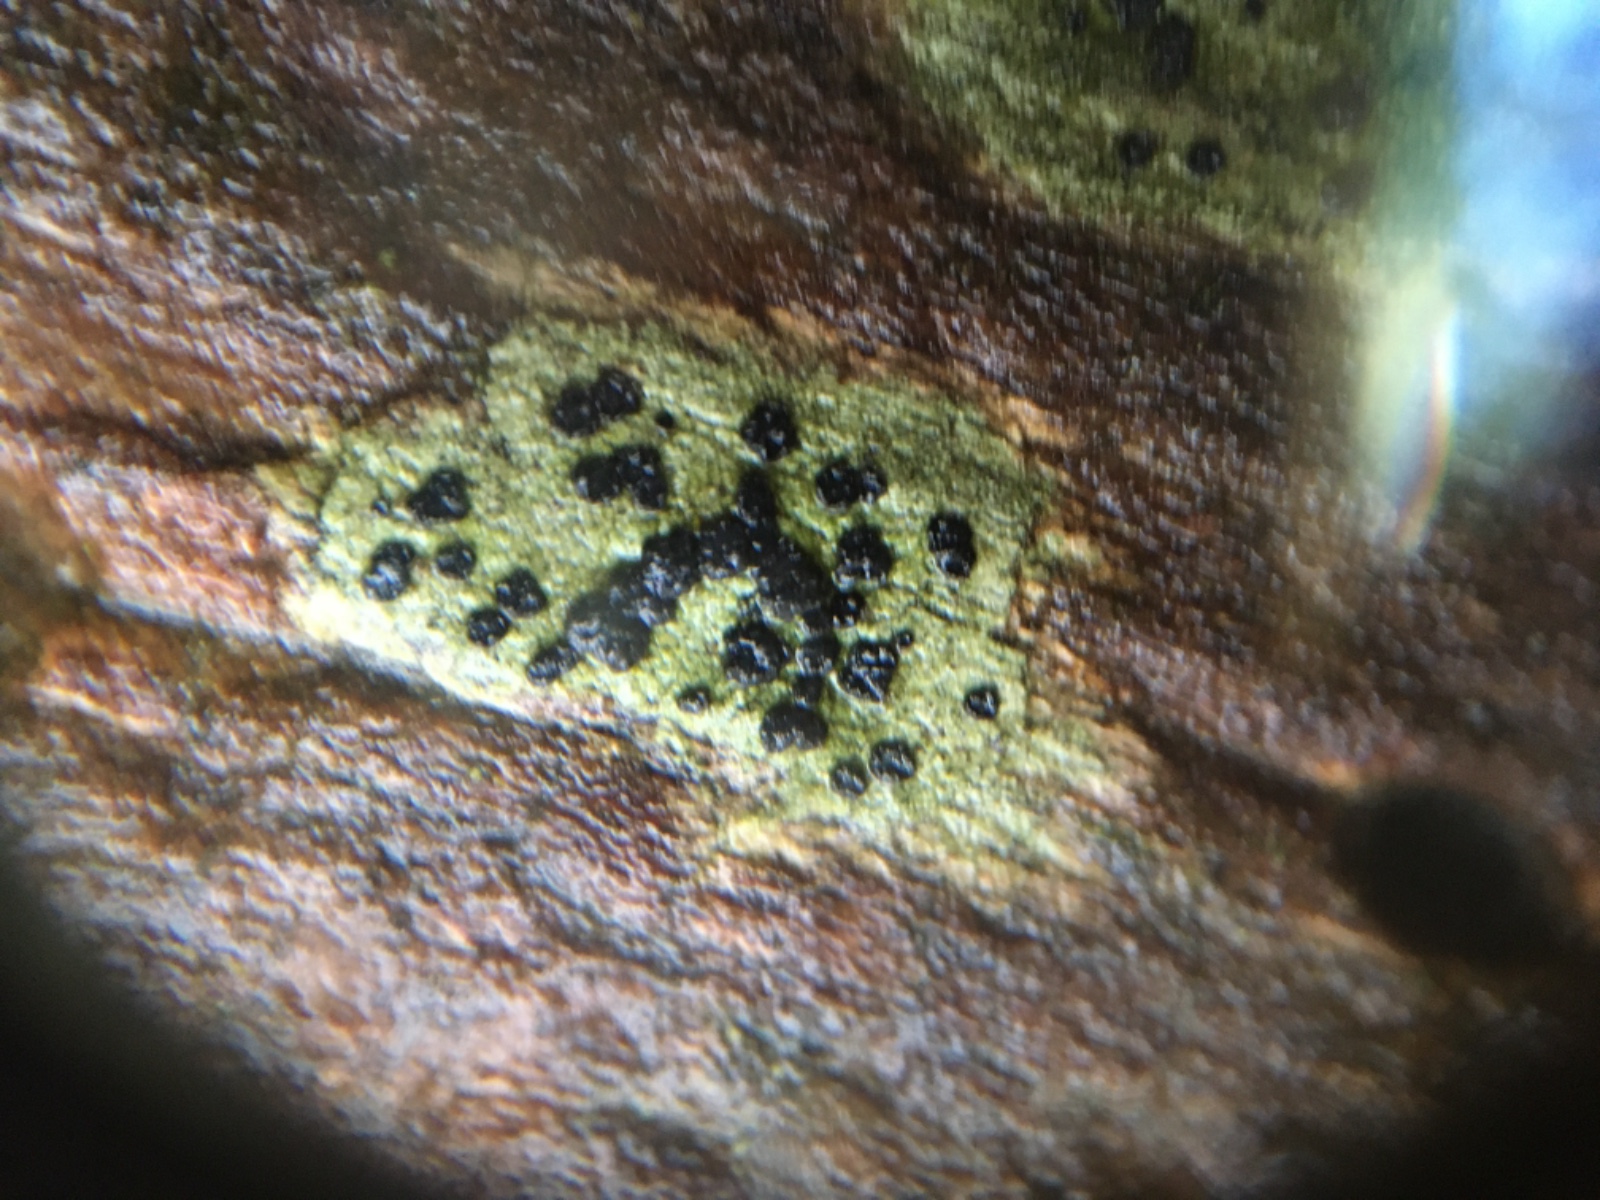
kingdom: Fungi
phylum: Ascomycota
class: Lecanoromycetes
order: Lecanorales
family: Lecanoraceae
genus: Lecidella
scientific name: Lecidella elaeochroma
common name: grågrøn skivelav
